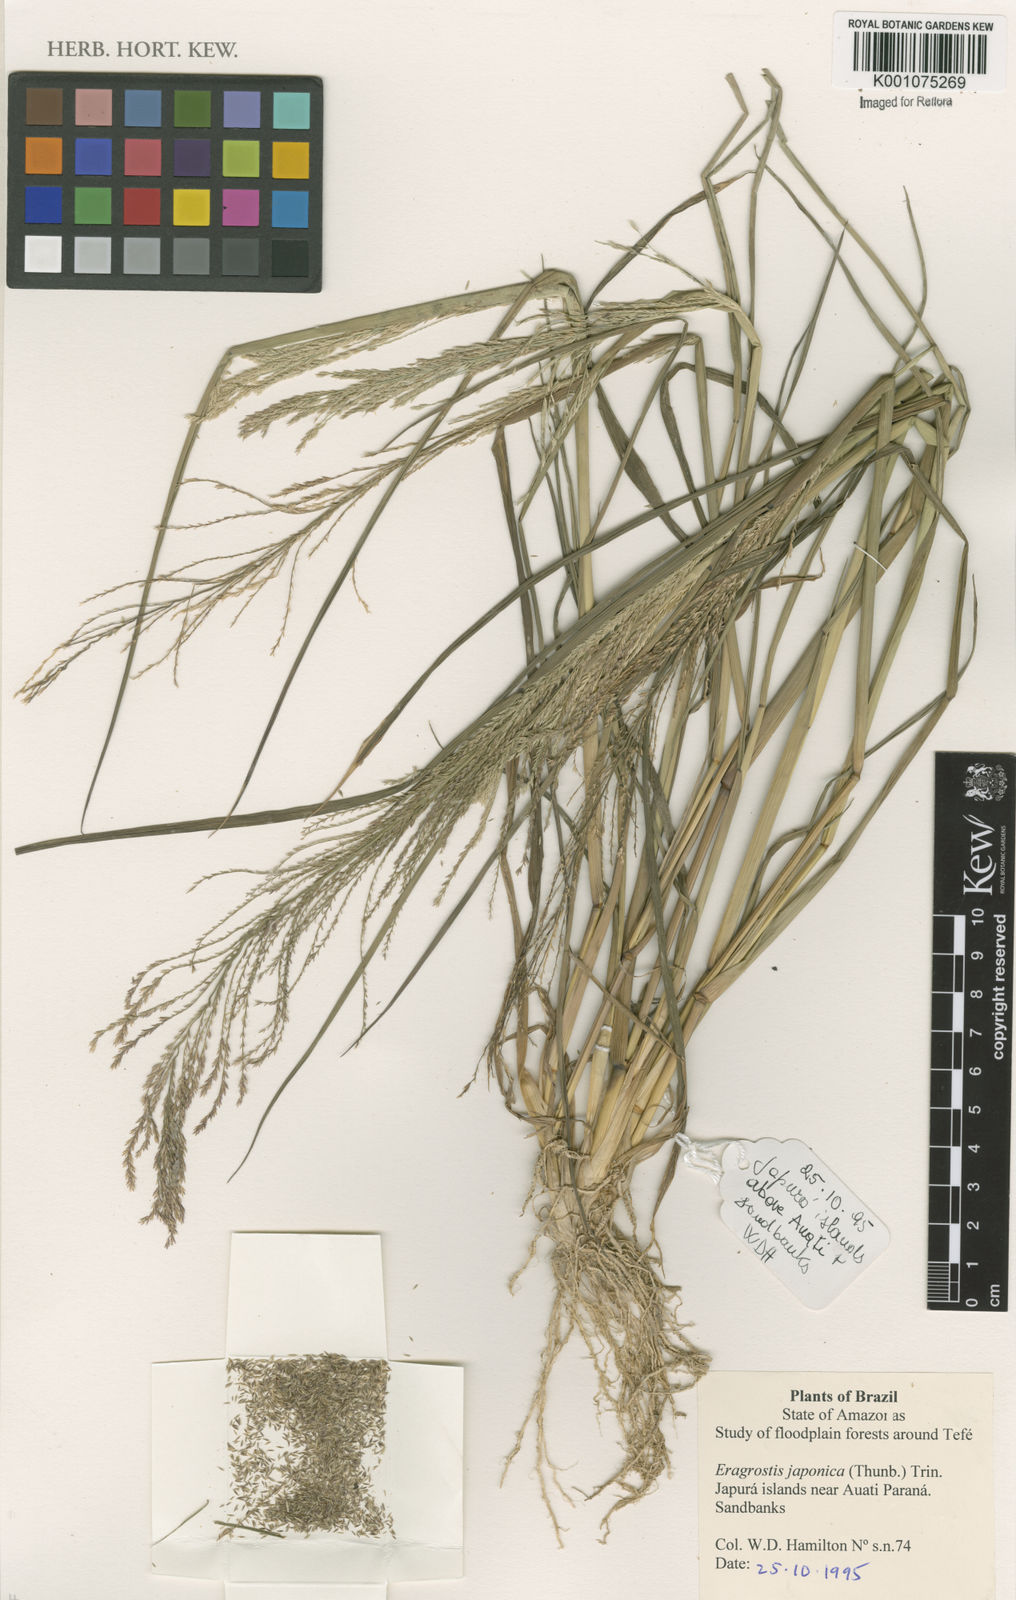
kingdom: Plantae
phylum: Tracheophyta
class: Liliopsida
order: Poales
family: Poaceae
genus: Eragrostis
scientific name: Eragrostis japonica
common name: Pond lovegrass
